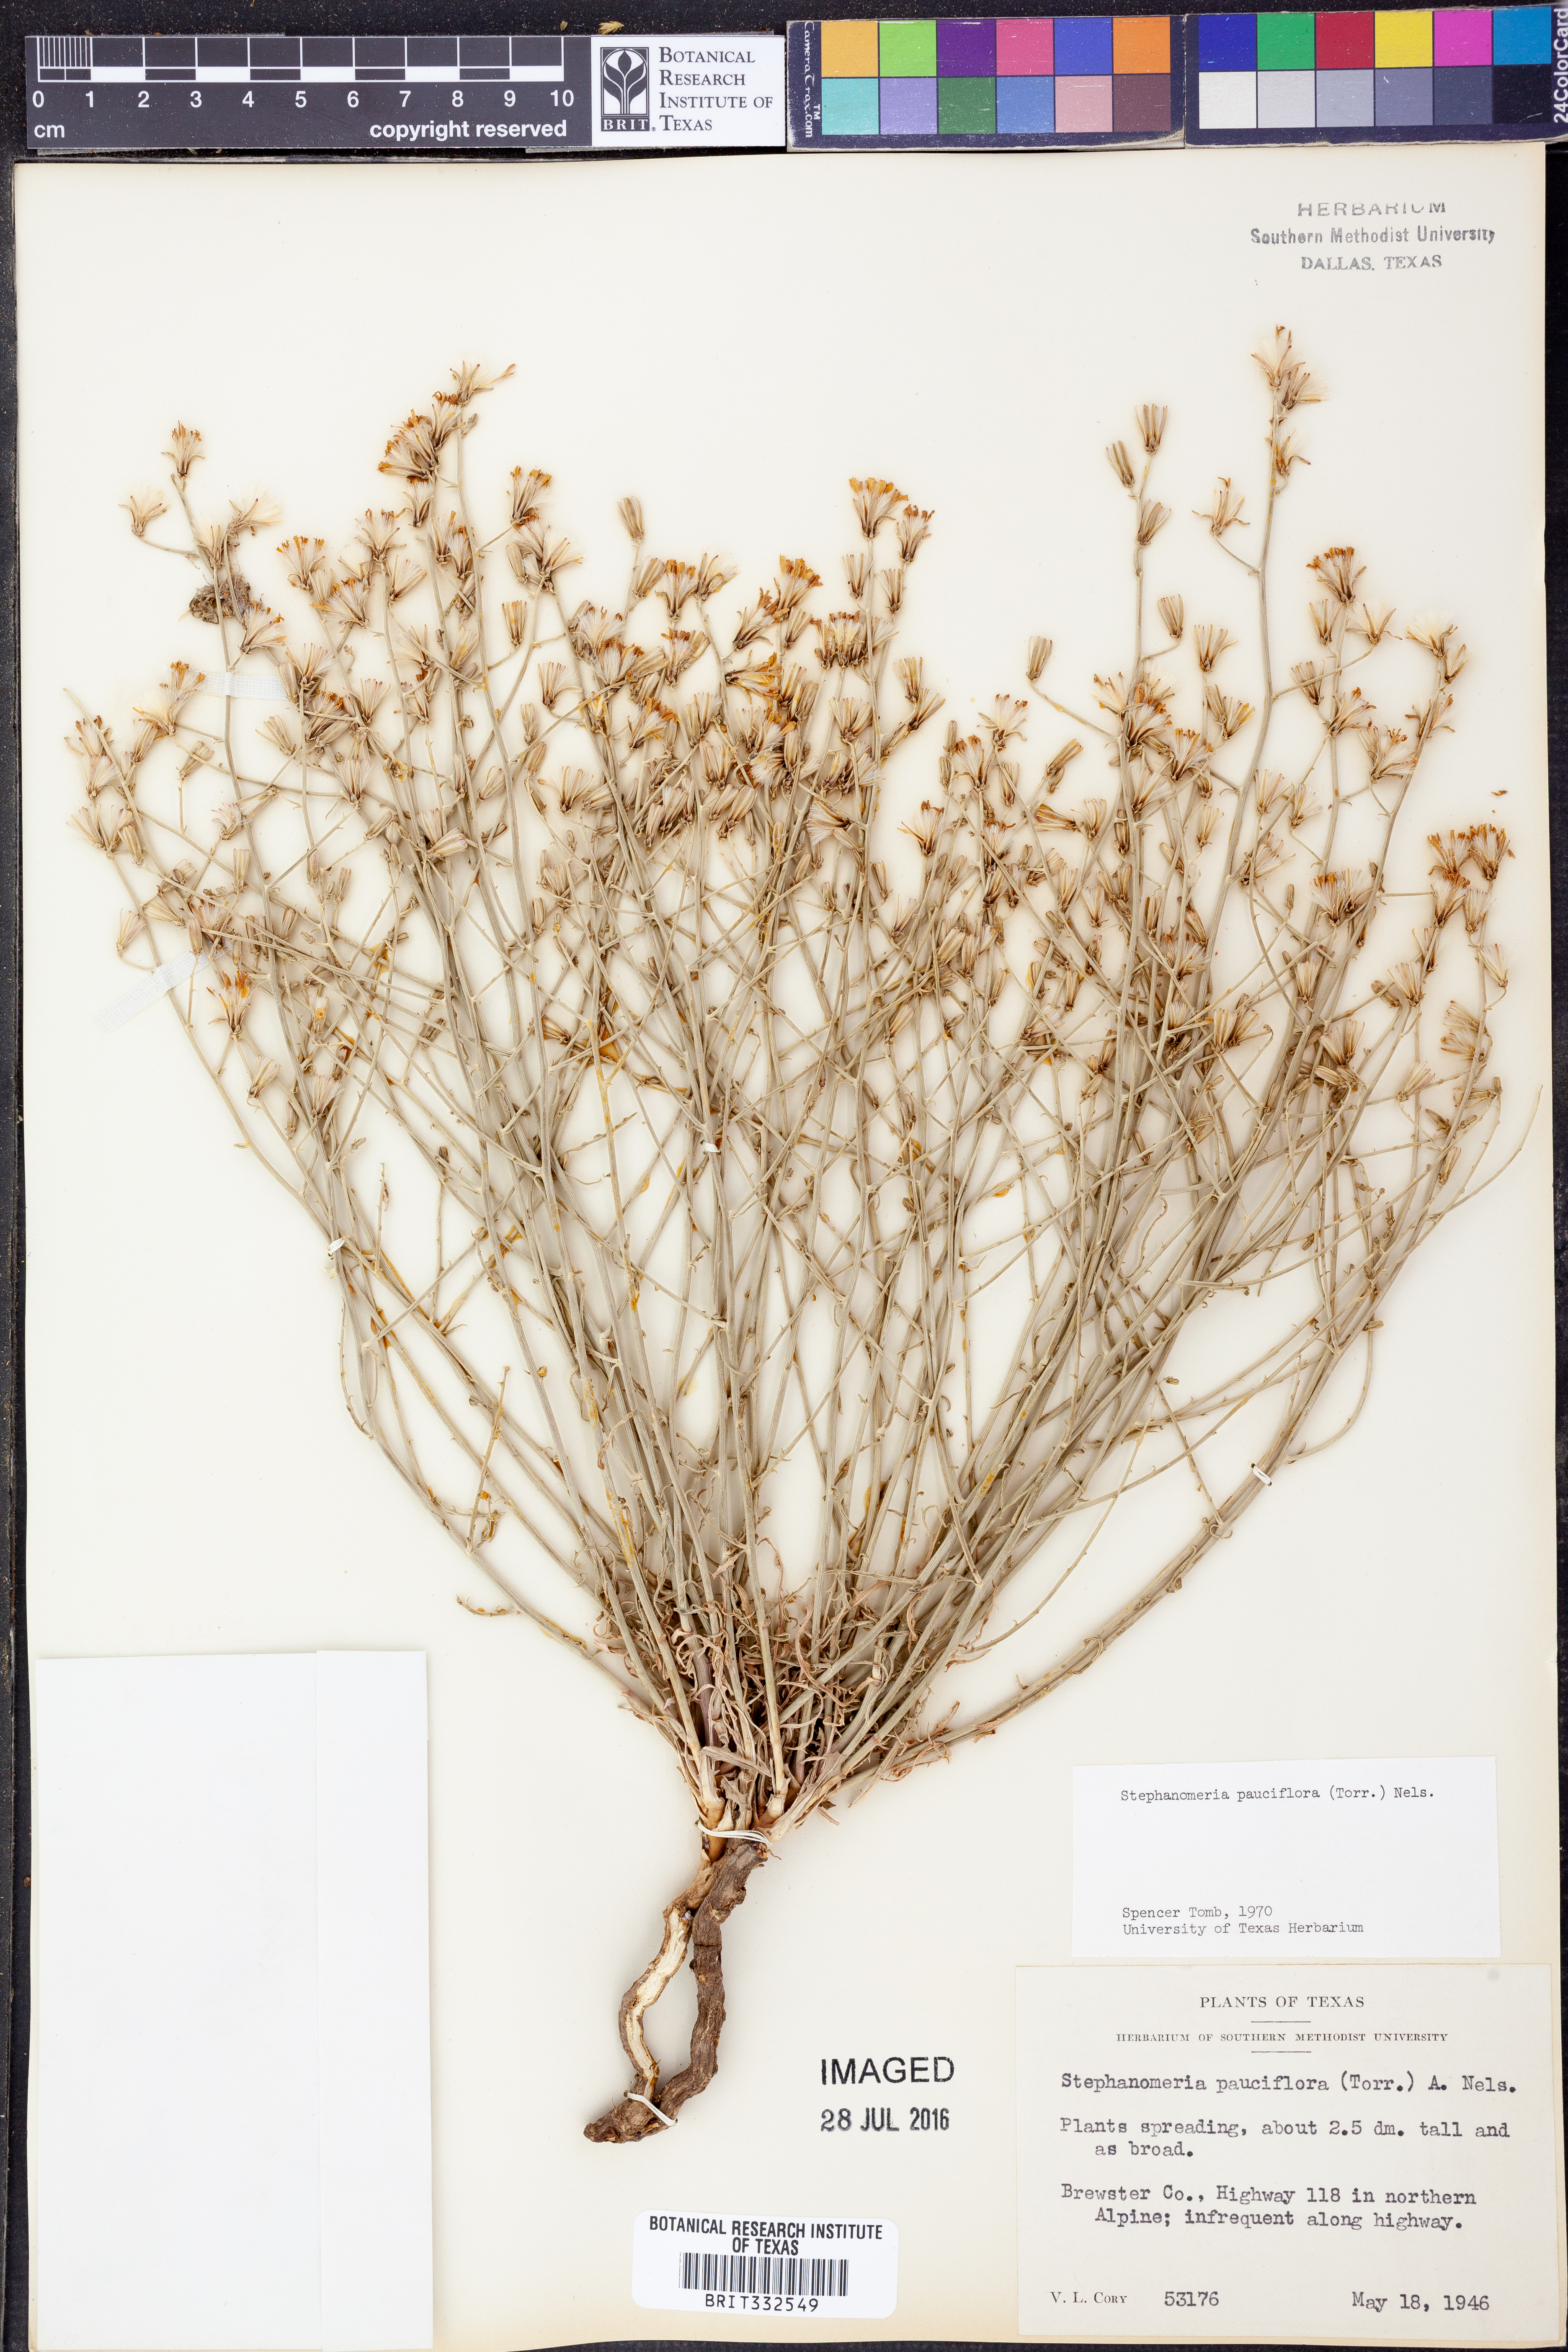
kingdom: Plantae
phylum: Tracheophyta
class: Magnoliopsida
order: Asterales
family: Asteraceae
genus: Stephanomeria
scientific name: Stephanomeria pauciflora
